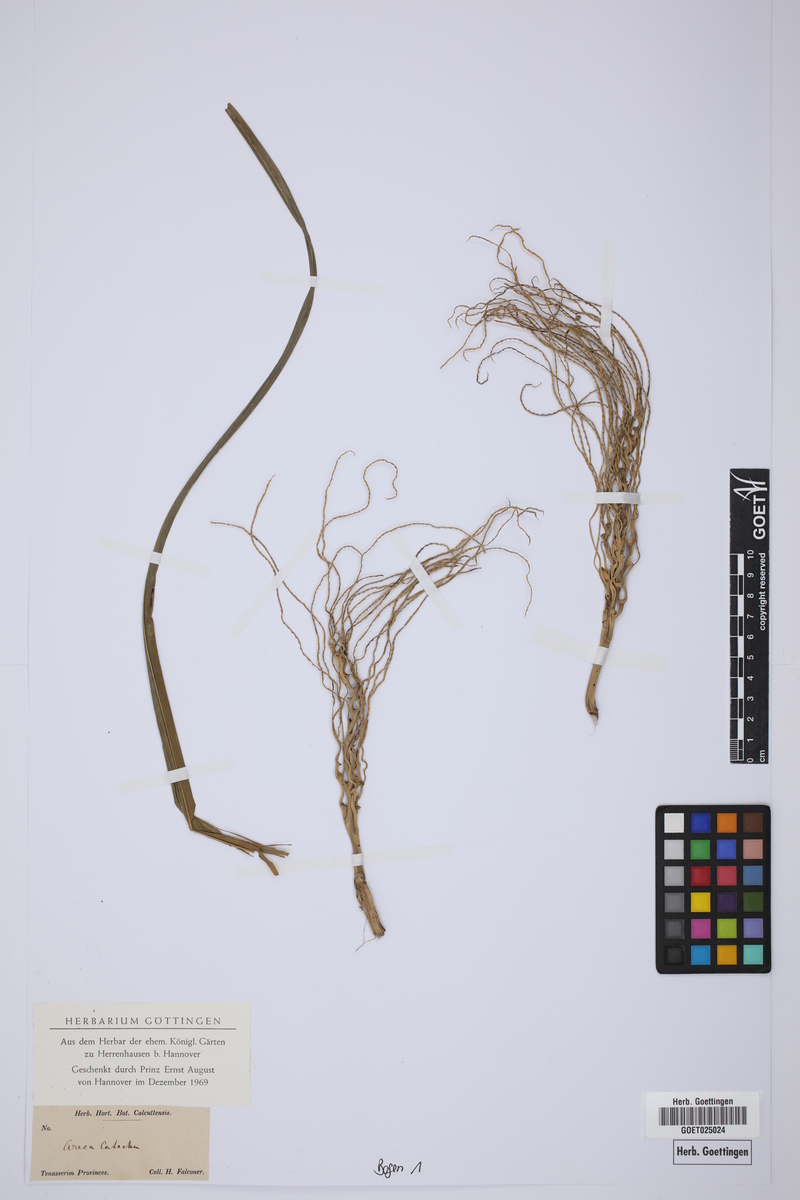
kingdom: Plantae
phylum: Tracheophyta
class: Liliopsida
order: Arecales
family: Arecaceae
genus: Areca
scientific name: Areca catechu
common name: Indian-nut
